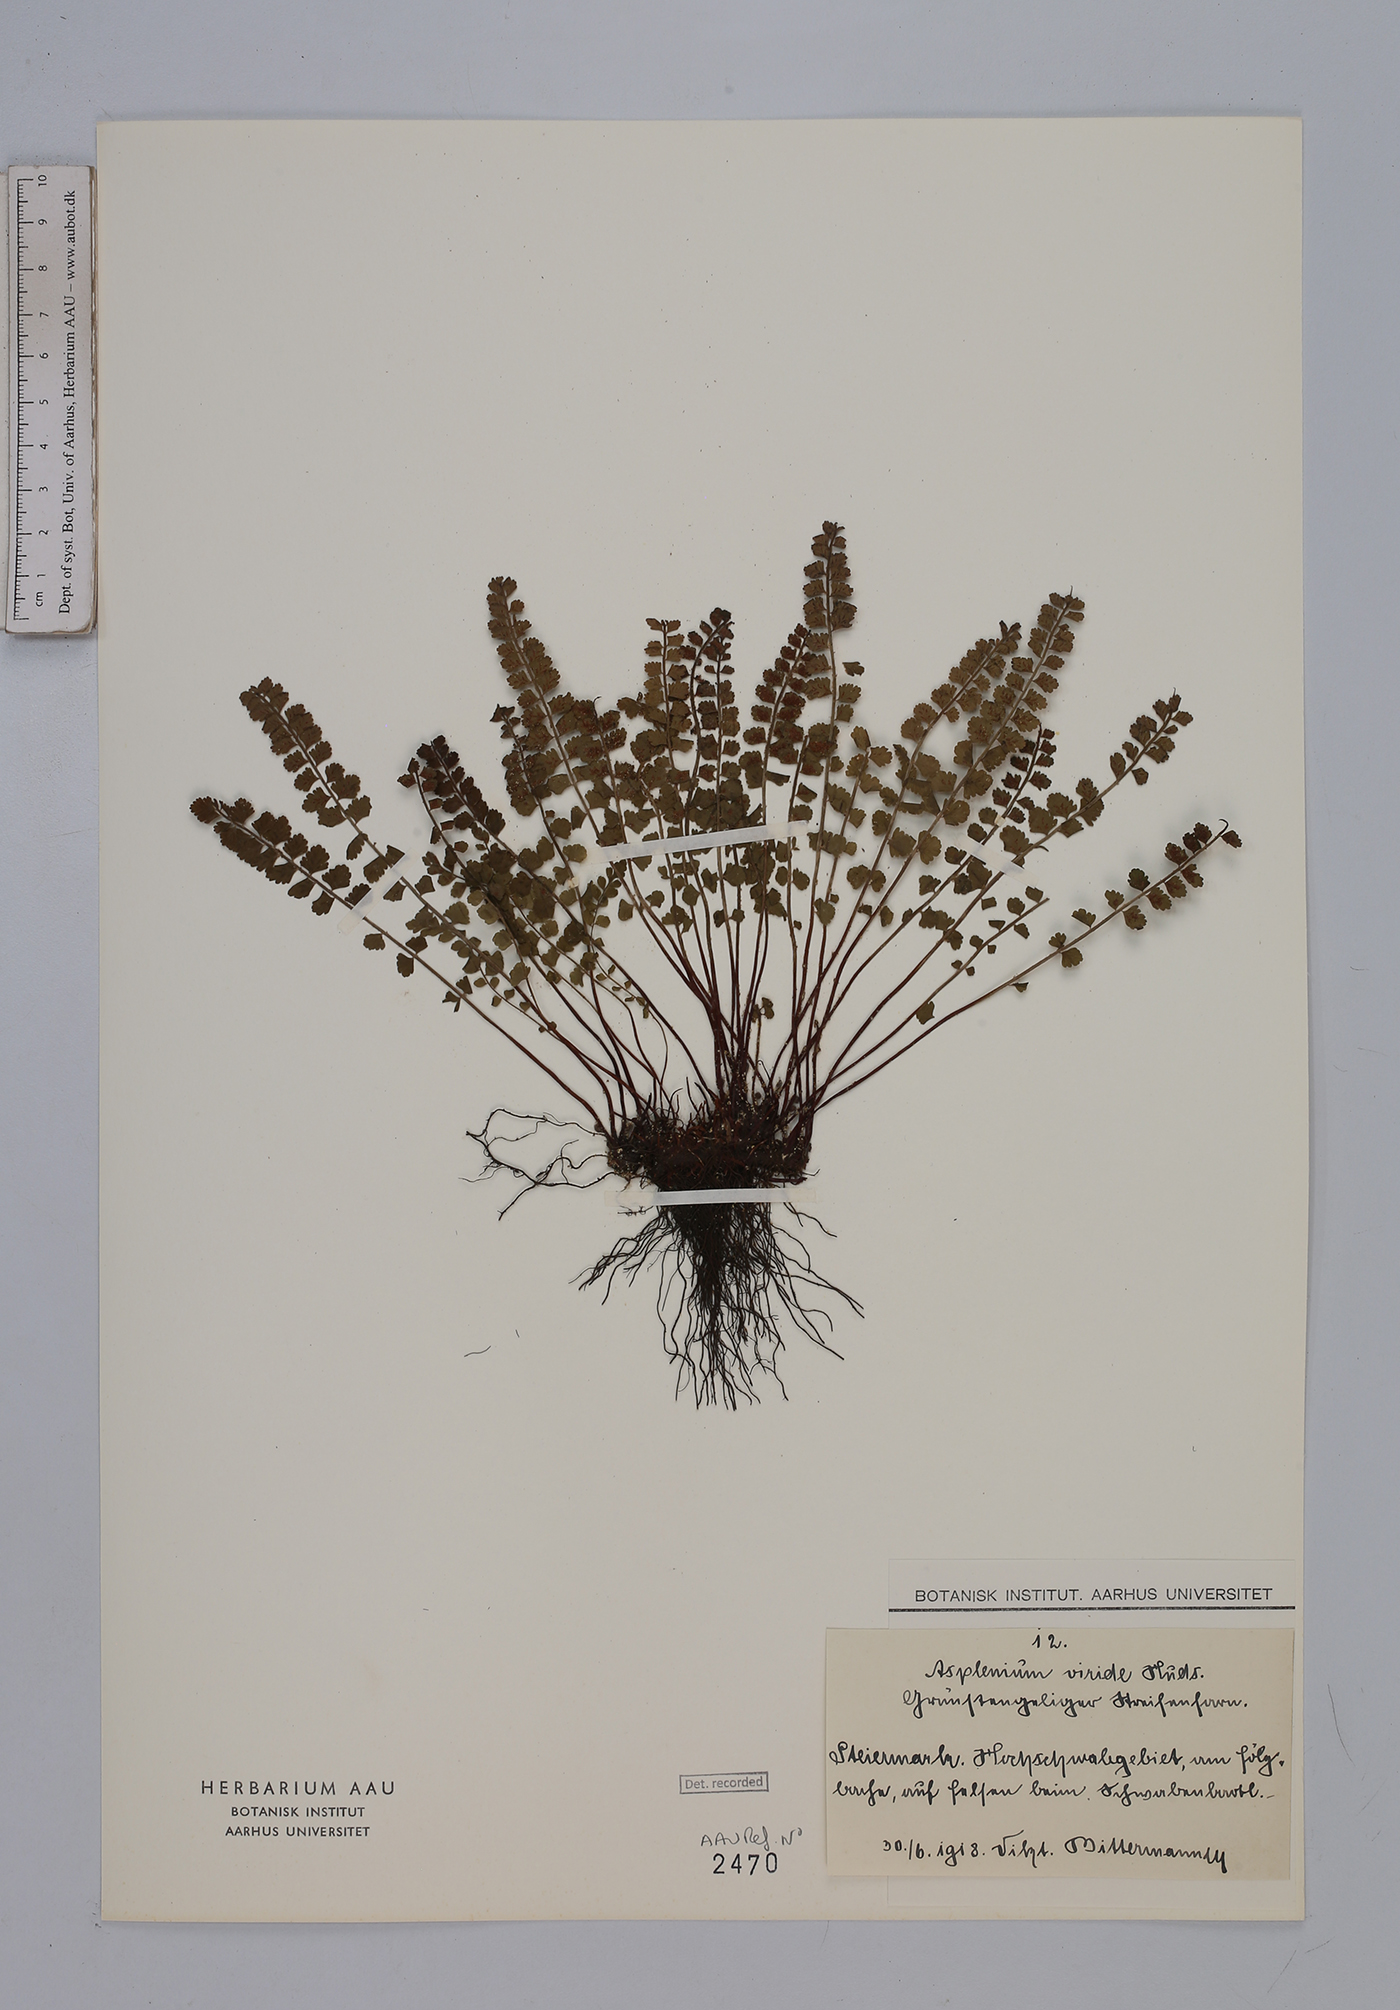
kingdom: Plantae
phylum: Tracheophyta
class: Polypodiopsida
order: Polypodiales
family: Aspleniaceae
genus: Asplenium
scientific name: Asplenium viride
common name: Green spleenwort
